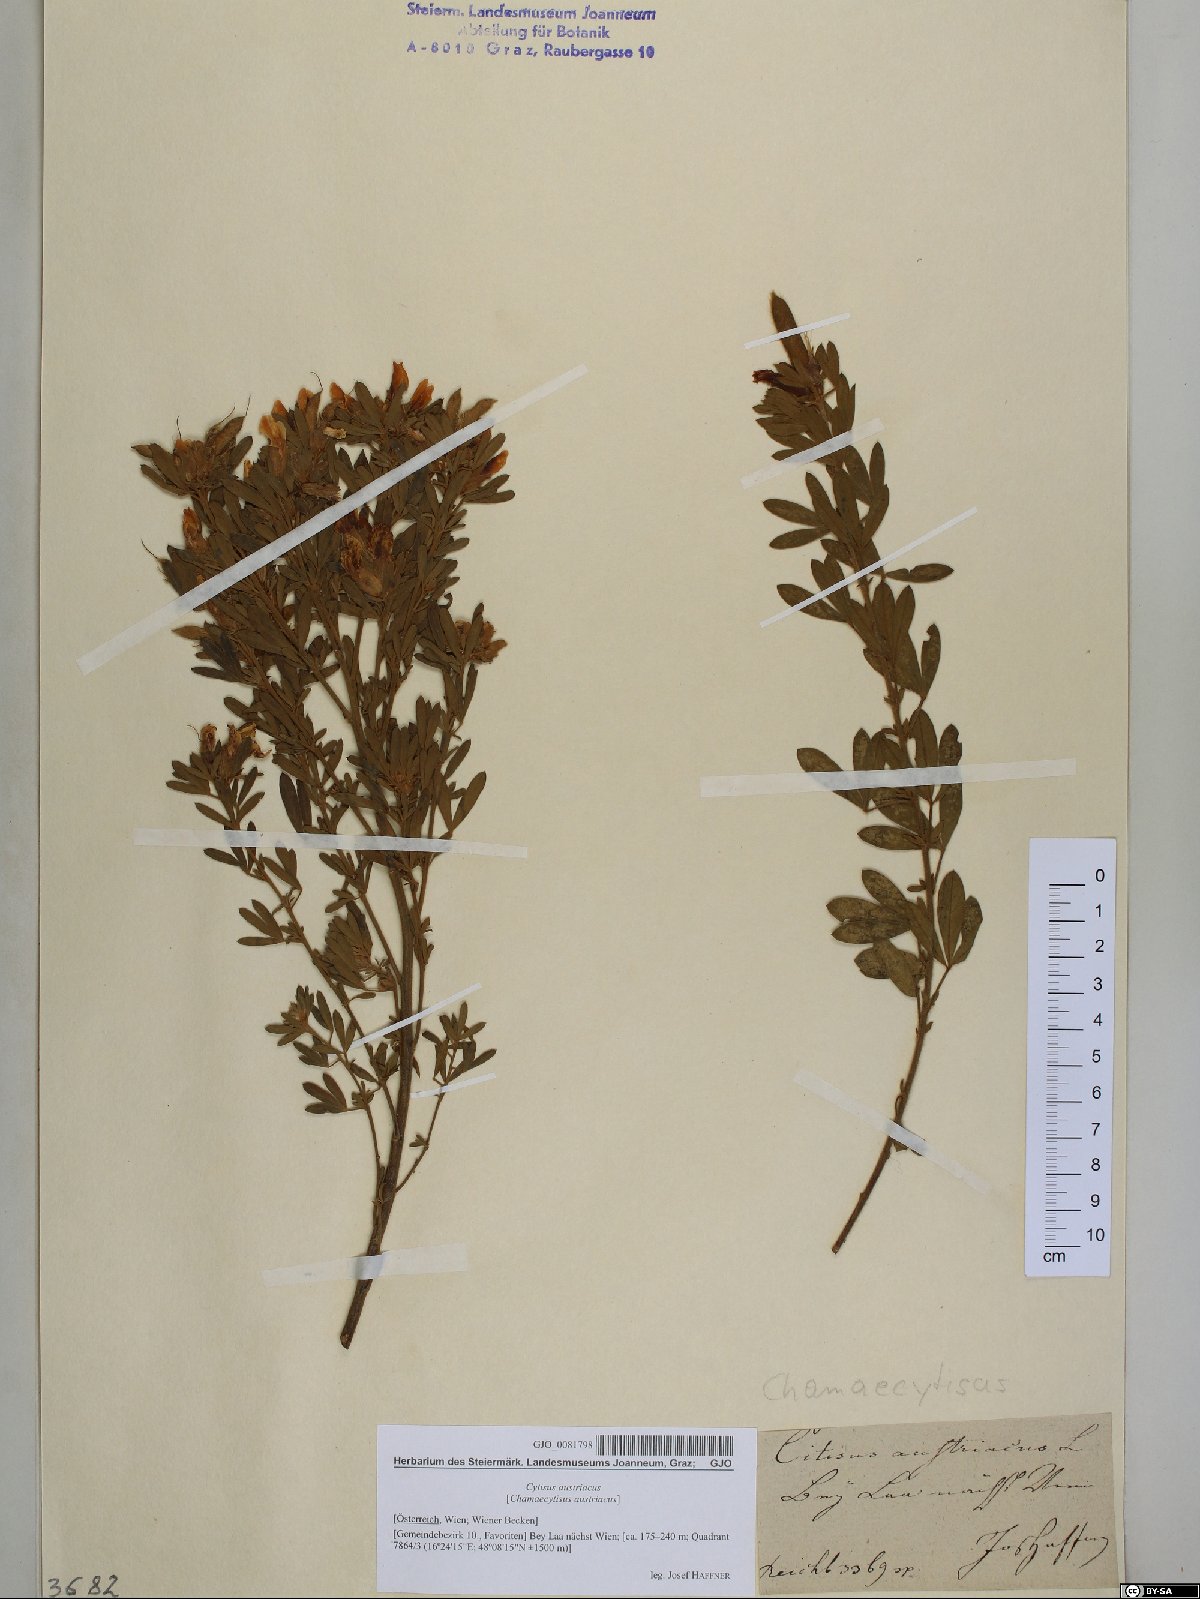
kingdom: Plantae
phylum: Tracheophyta
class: Magnoliopsida
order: Fabales
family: Fabaceae
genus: Chamaecytisus
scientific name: Chamaecytisus austriacus
